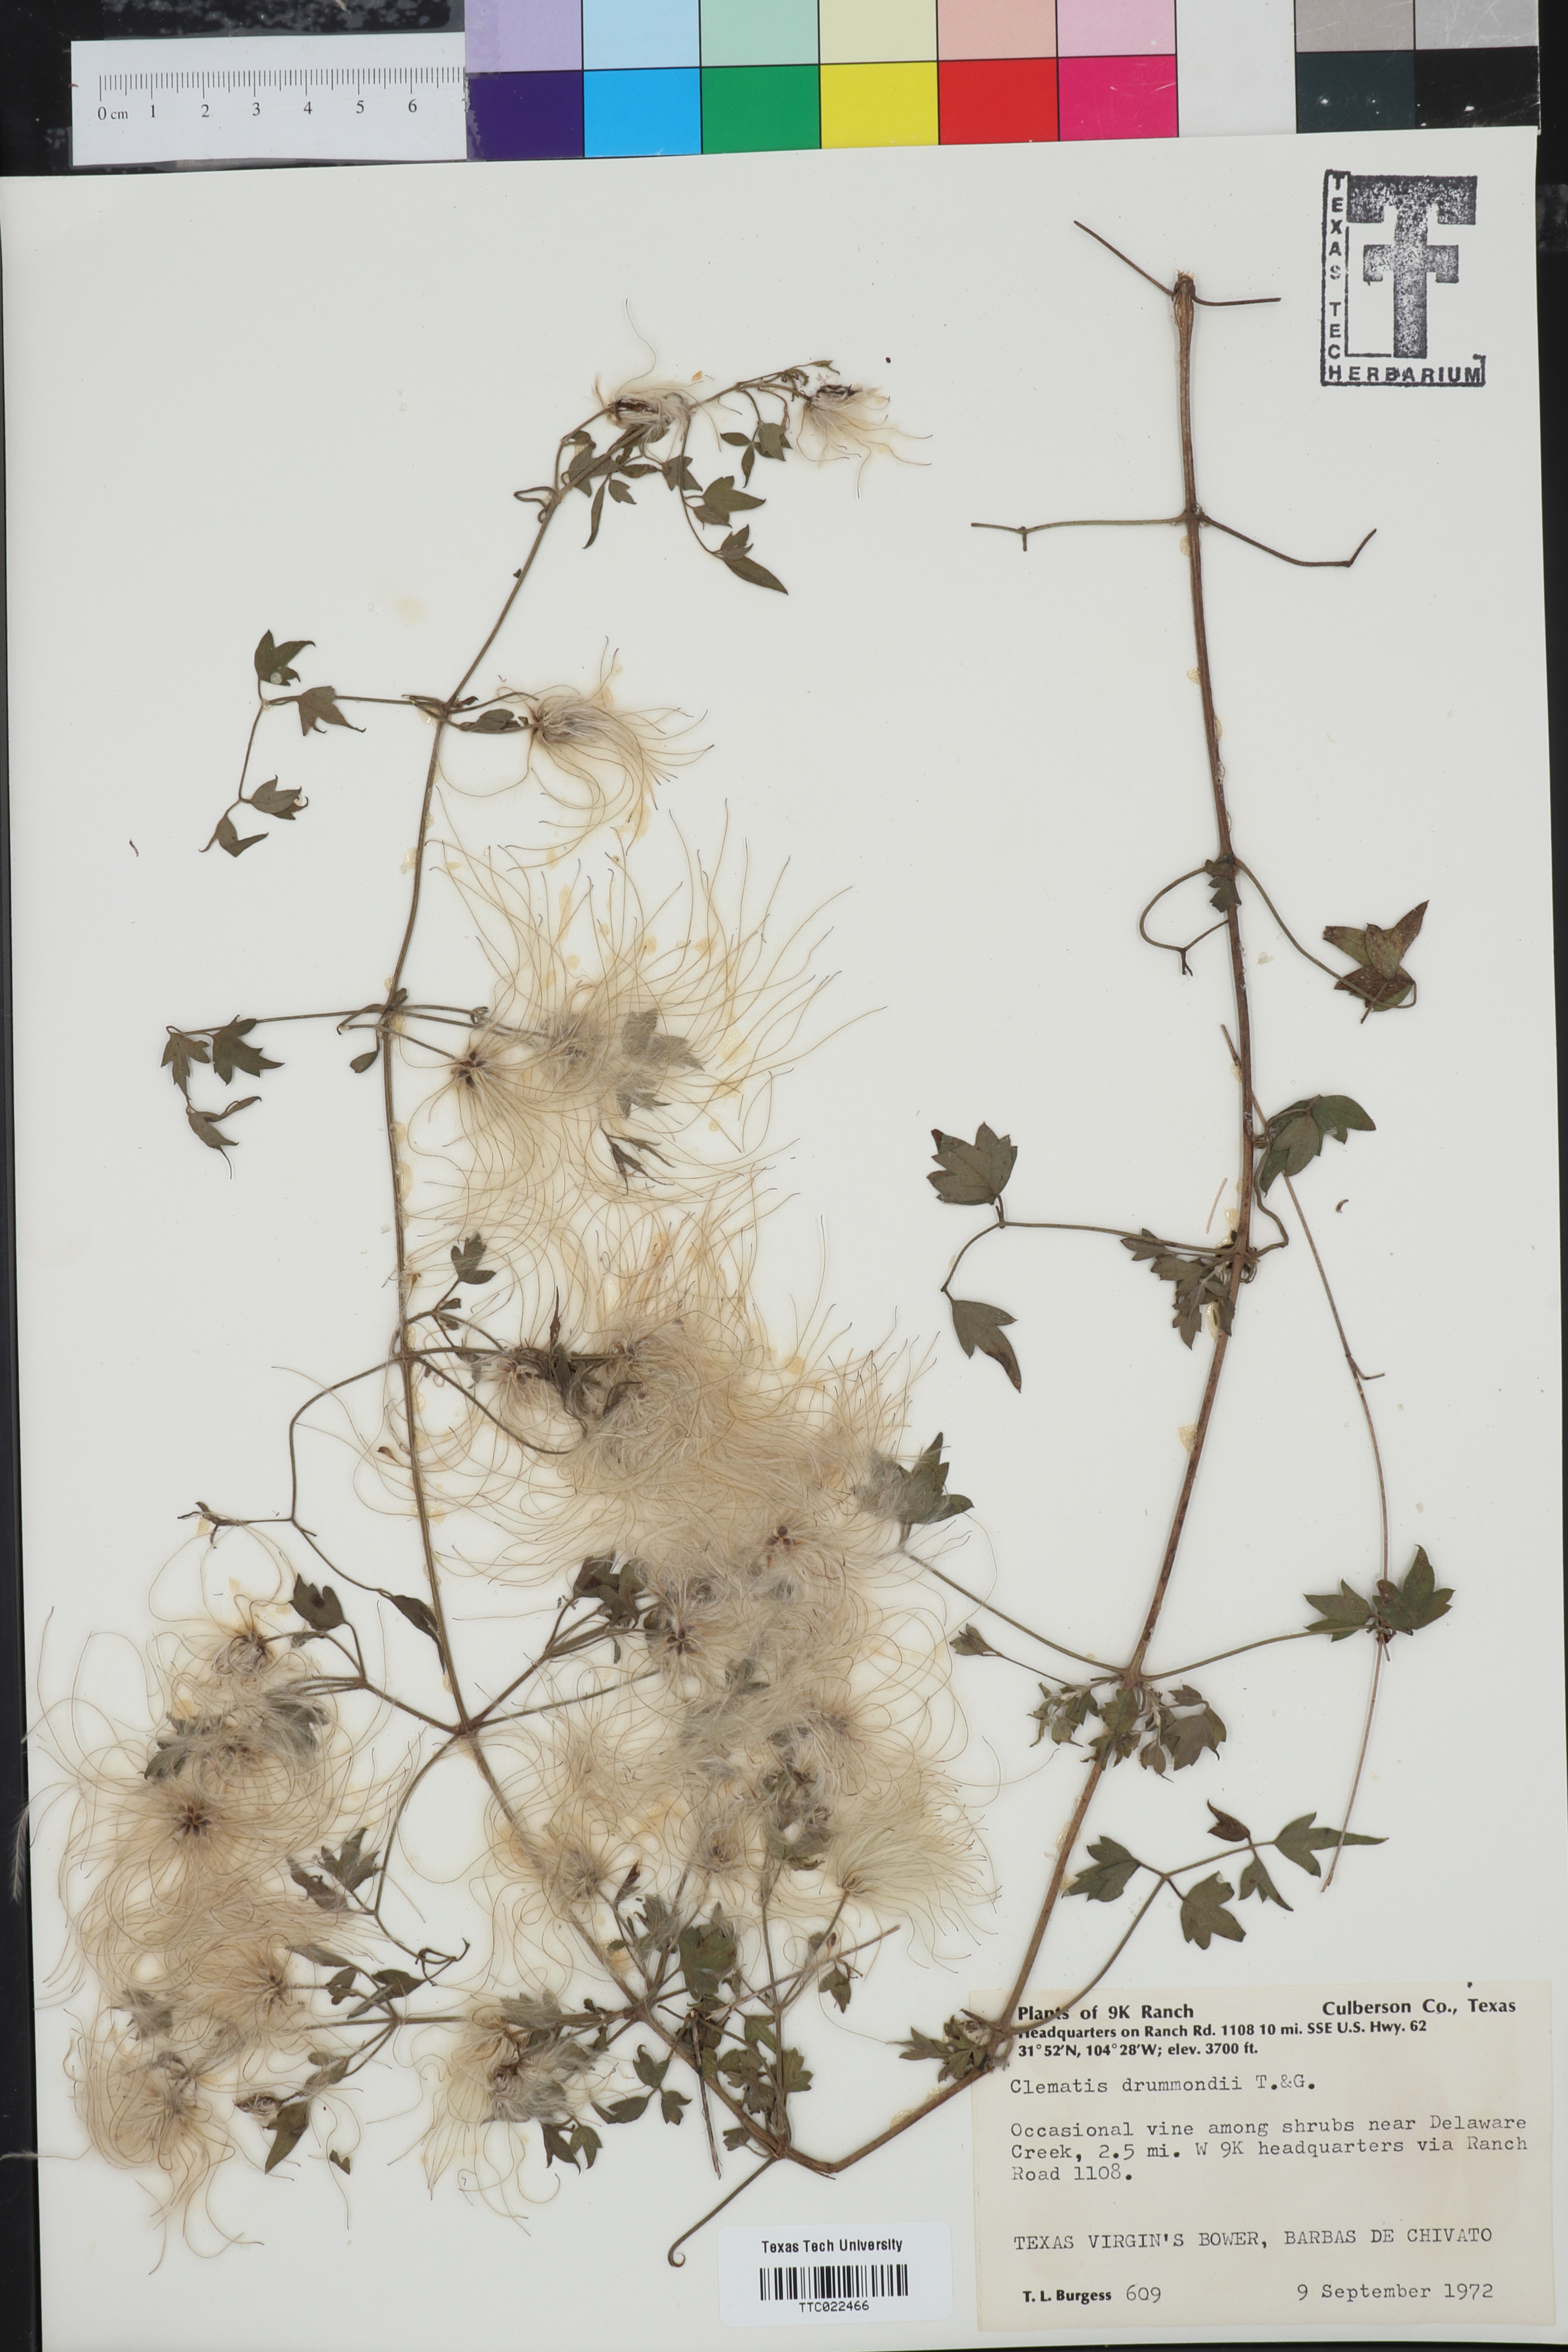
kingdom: Plantae
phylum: Tracheophyta
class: Magnoliopsida
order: Ranunculales
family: Ranunculaceae
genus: Clematis
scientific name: Clematis drummondii
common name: Texas virgin's bower
